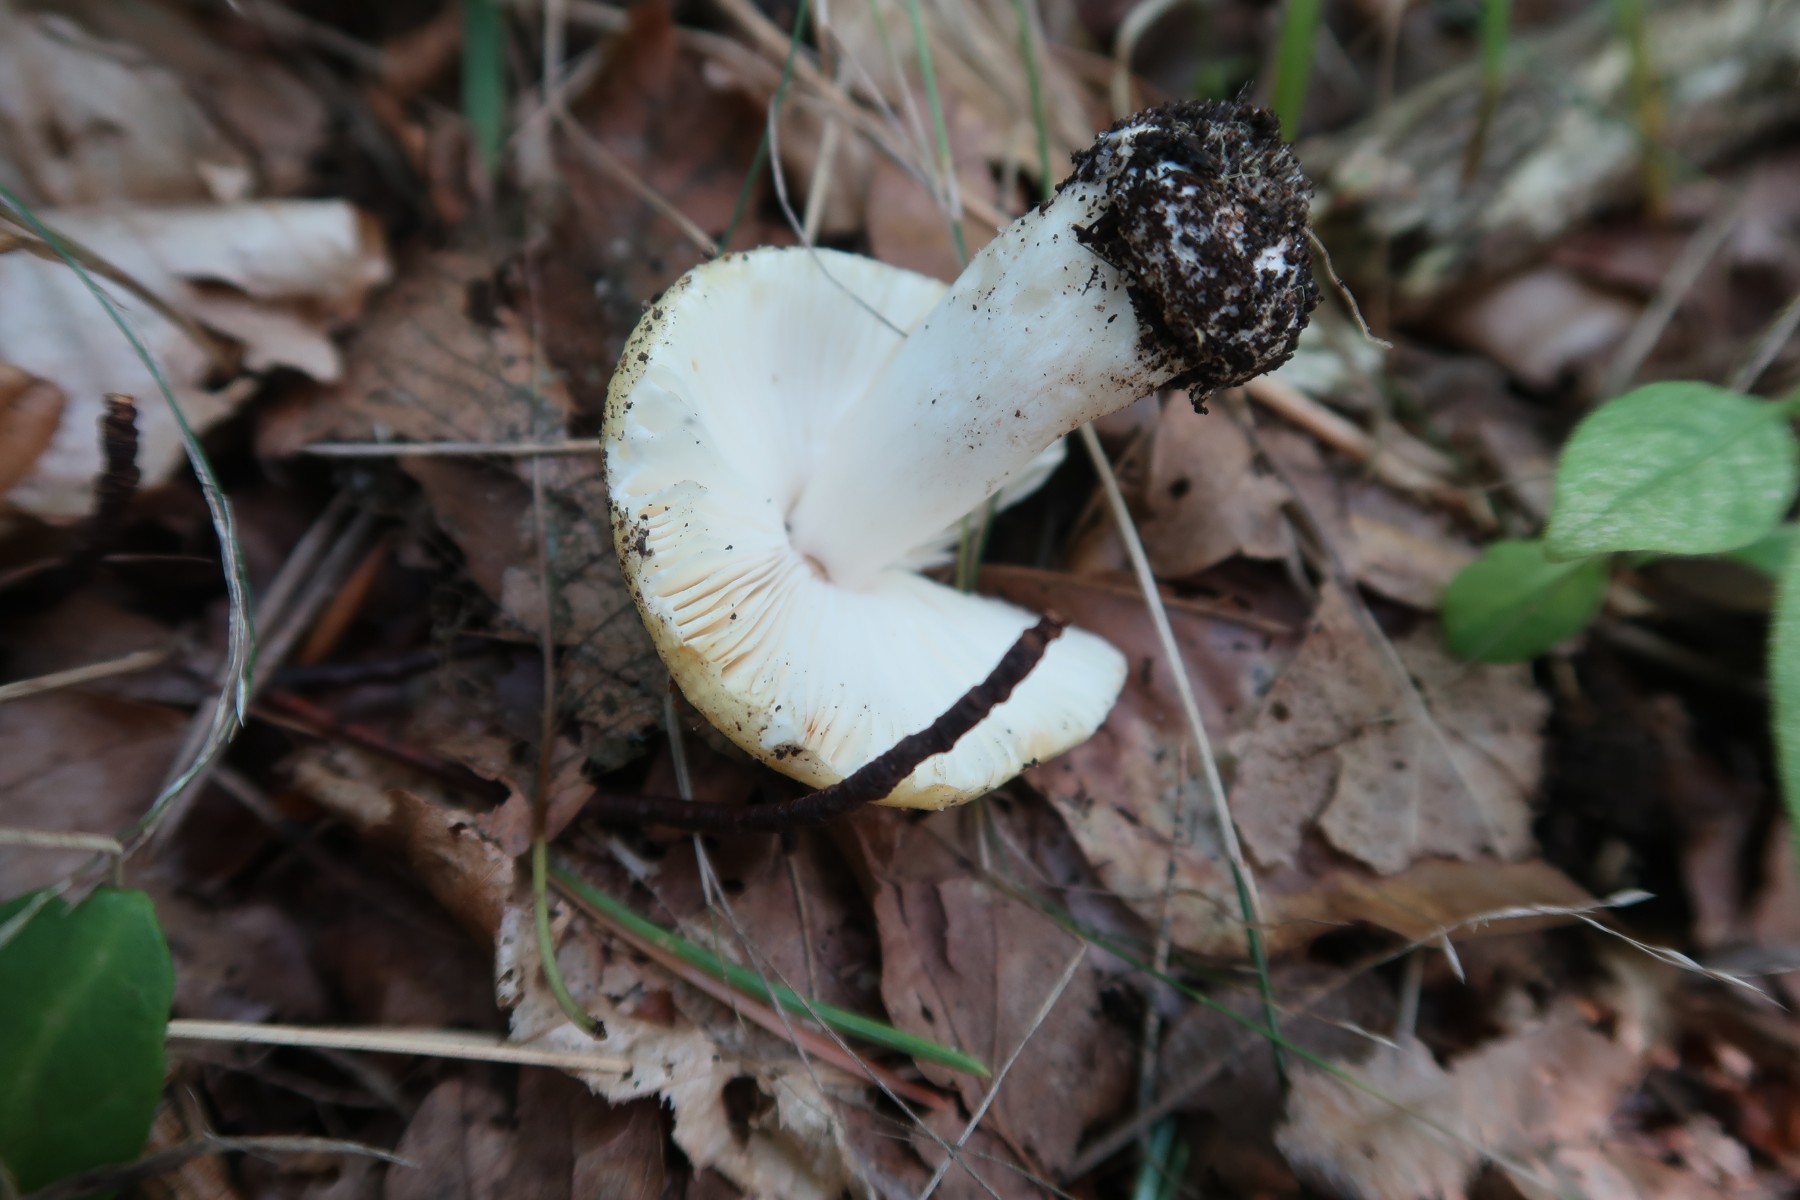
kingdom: Fungi
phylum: Basidiomycota
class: Agaricomycetes
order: Russulales
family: Russulaceae
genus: Russula
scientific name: Russula solaris
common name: sol-skørhat
